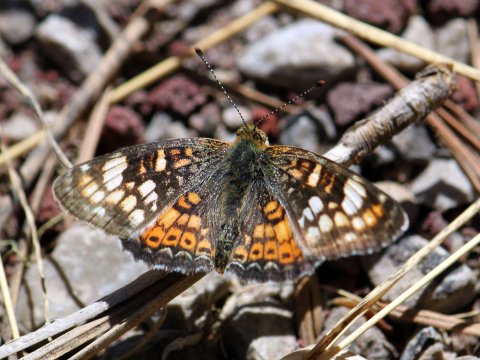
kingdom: Animalia
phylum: Arthropoda
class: Insecta
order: Lepidoptera
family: Nymphalidae
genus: Phyciodes
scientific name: Phyciodes tharos
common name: Field Crescent
